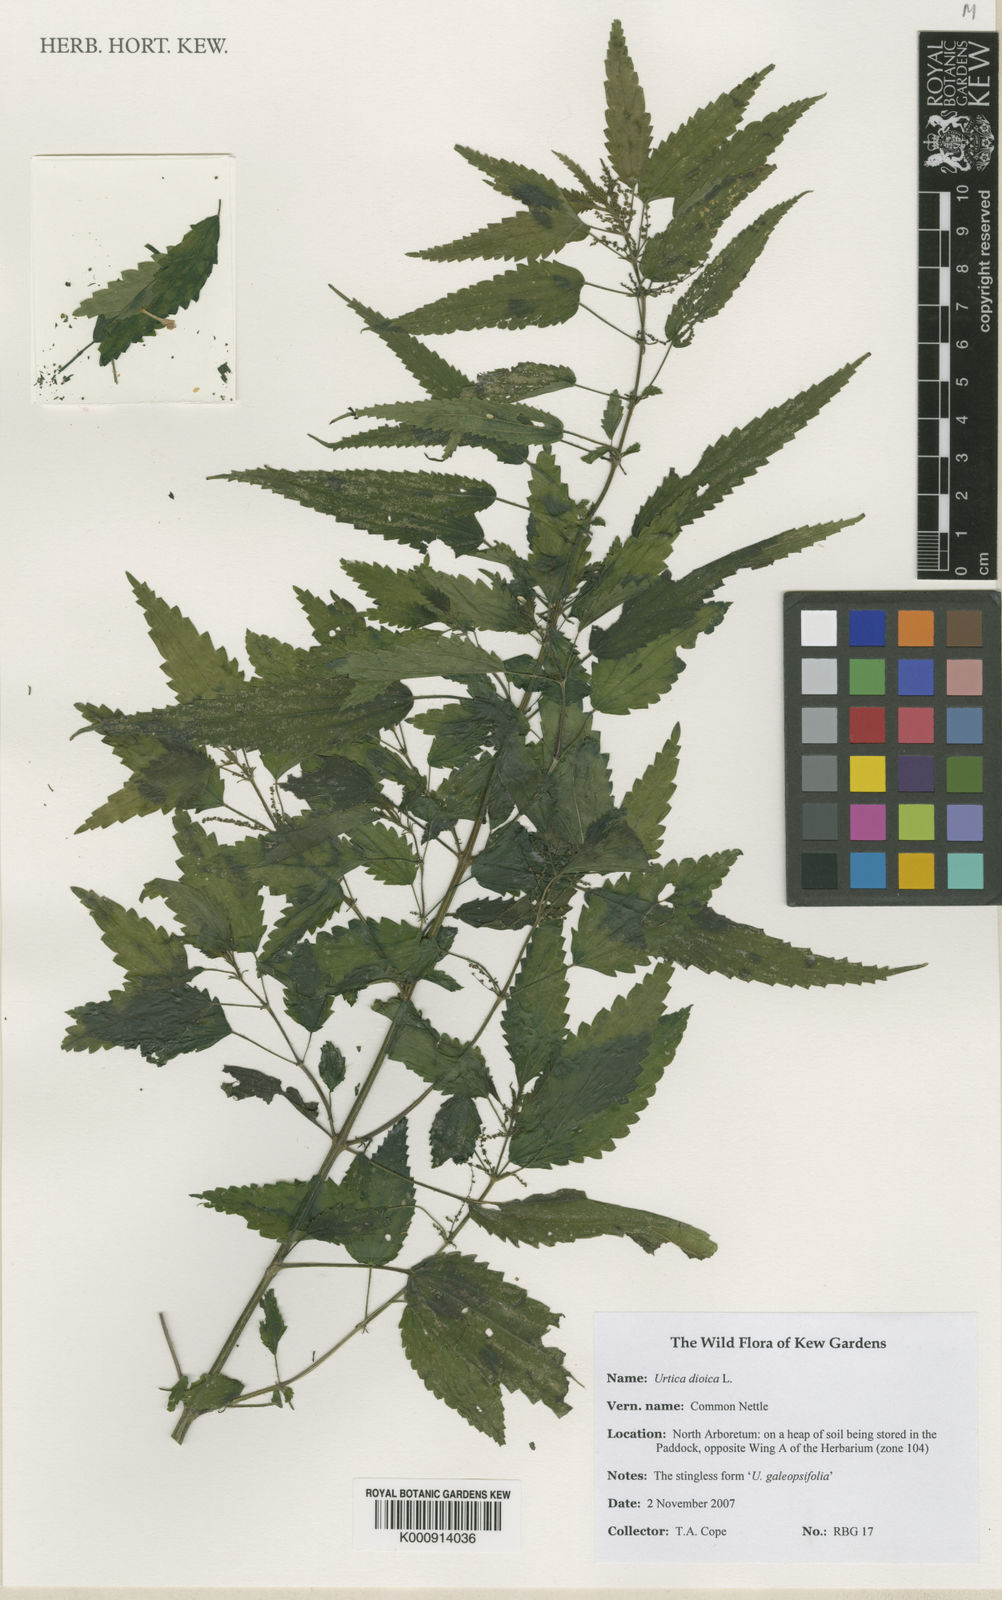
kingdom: Plantae
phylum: Tracheophyta
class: Magnoliopsida
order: Rosales
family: Urticaceae
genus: Urtica
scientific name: Urtica dioica
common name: Common nettle
